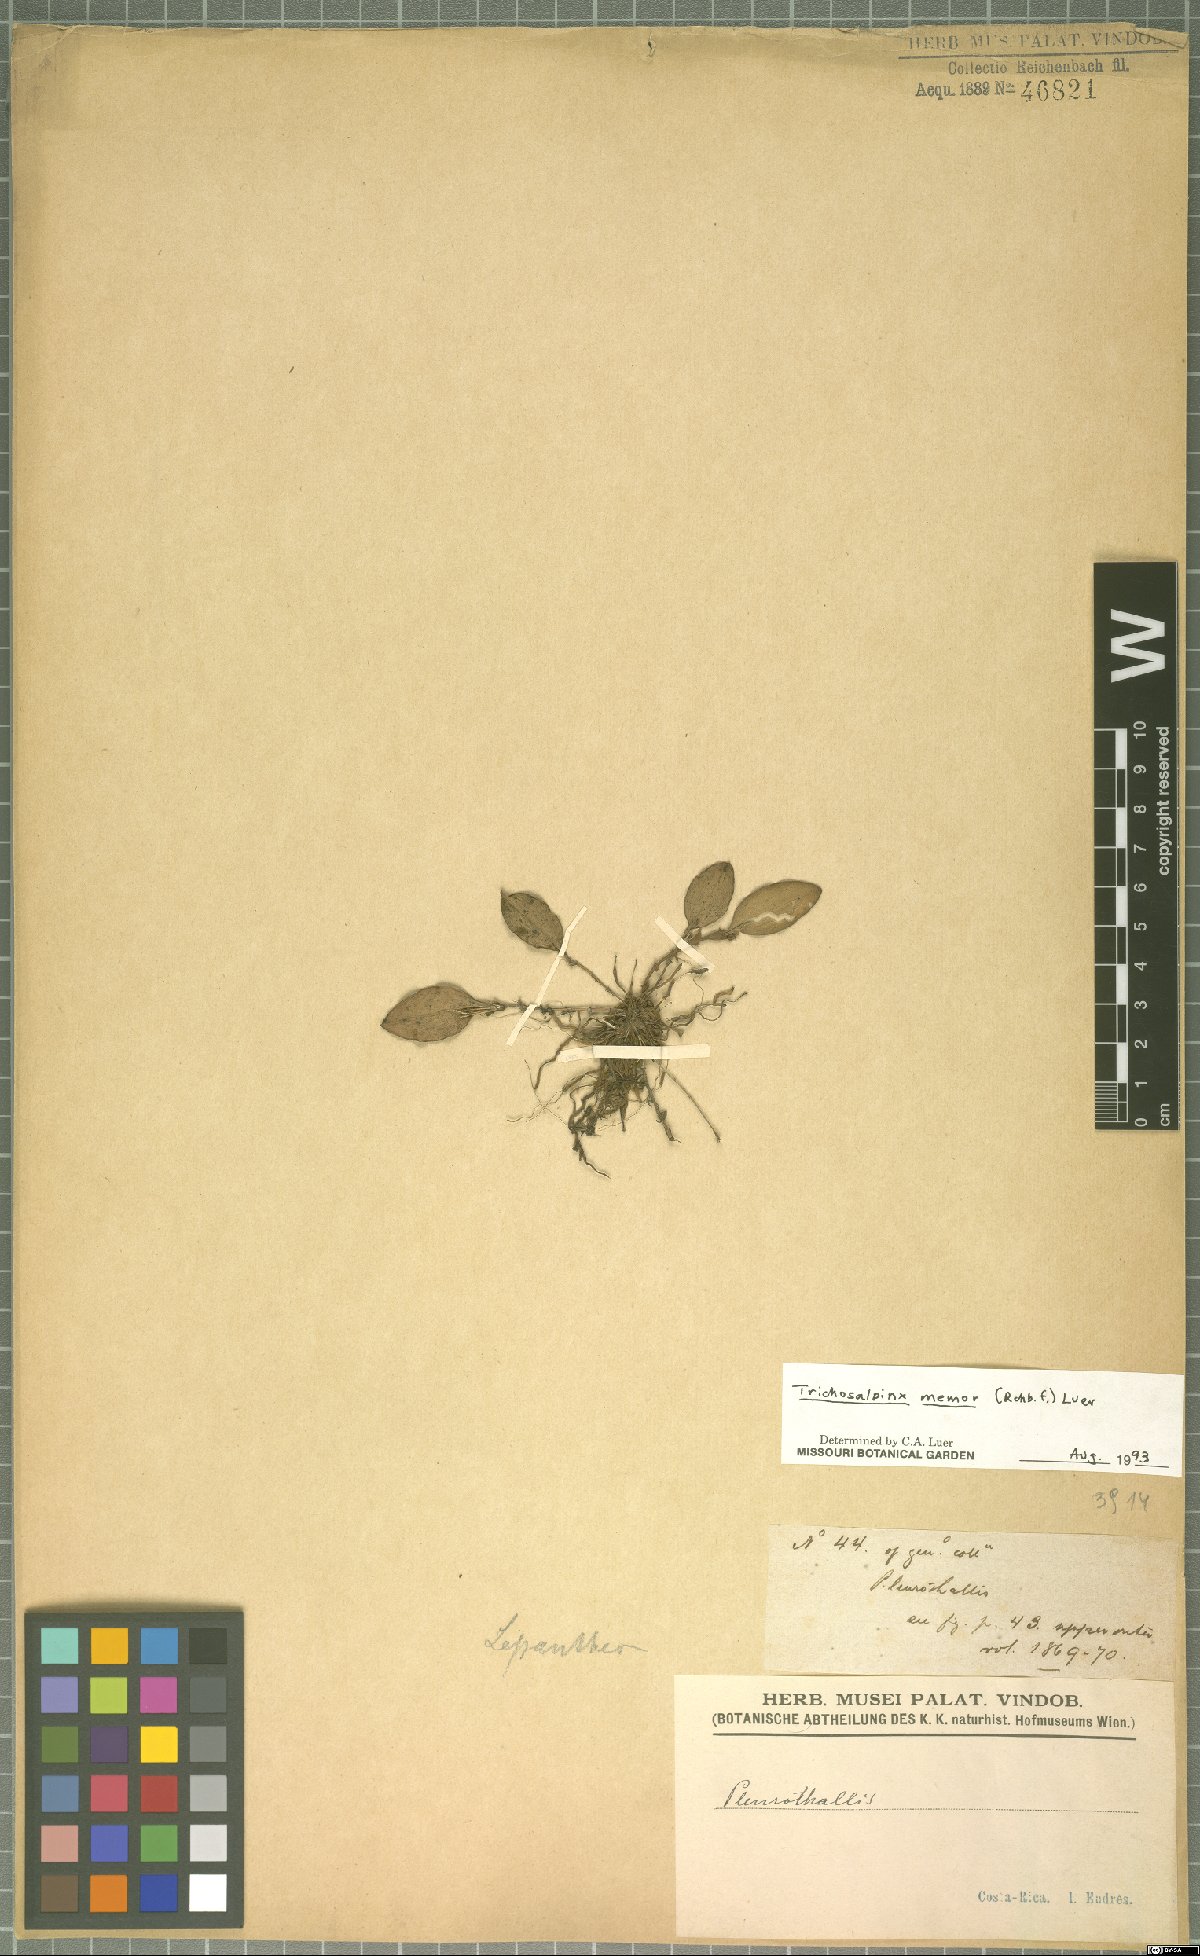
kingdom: Plantae
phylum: Tracheophyta
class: Liliopsida
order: Asparagales
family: Orchidaceae
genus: Trichosalpinx
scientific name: Trichosalpinx memor
